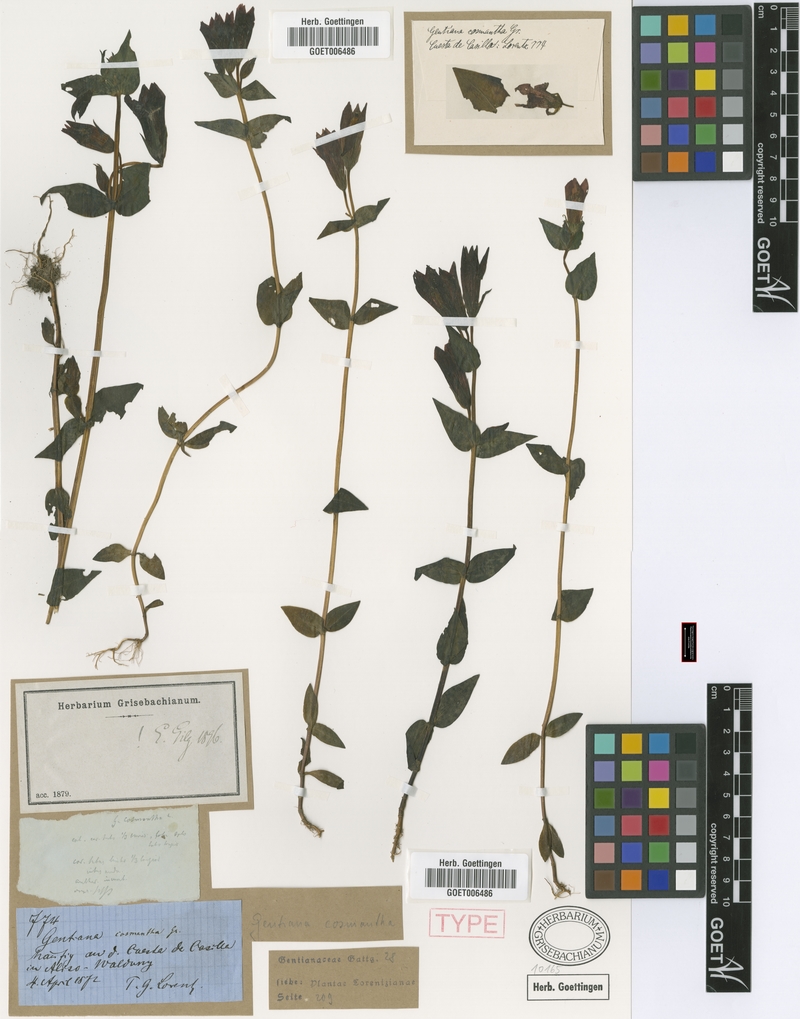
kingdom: Plantae
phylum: Tracheophyta
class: Magnoliopsida
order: Gentianales
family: Gentianaceae
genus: Gentianella
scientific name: Gentianella cosmantha
